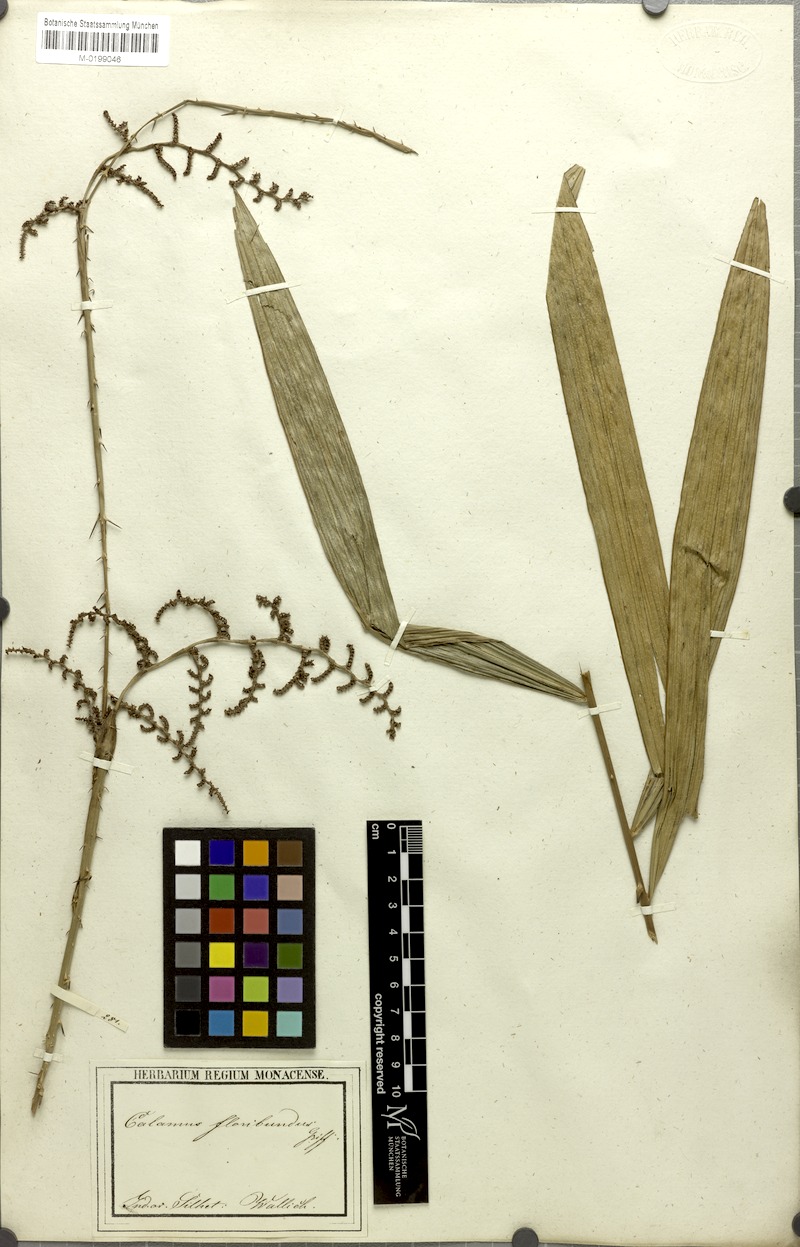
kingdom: Plantae
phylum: Tracheophyta
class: Liliopsida
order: Arecales
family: Arecaceae
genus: Calamus
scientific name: Calamus floribundus
